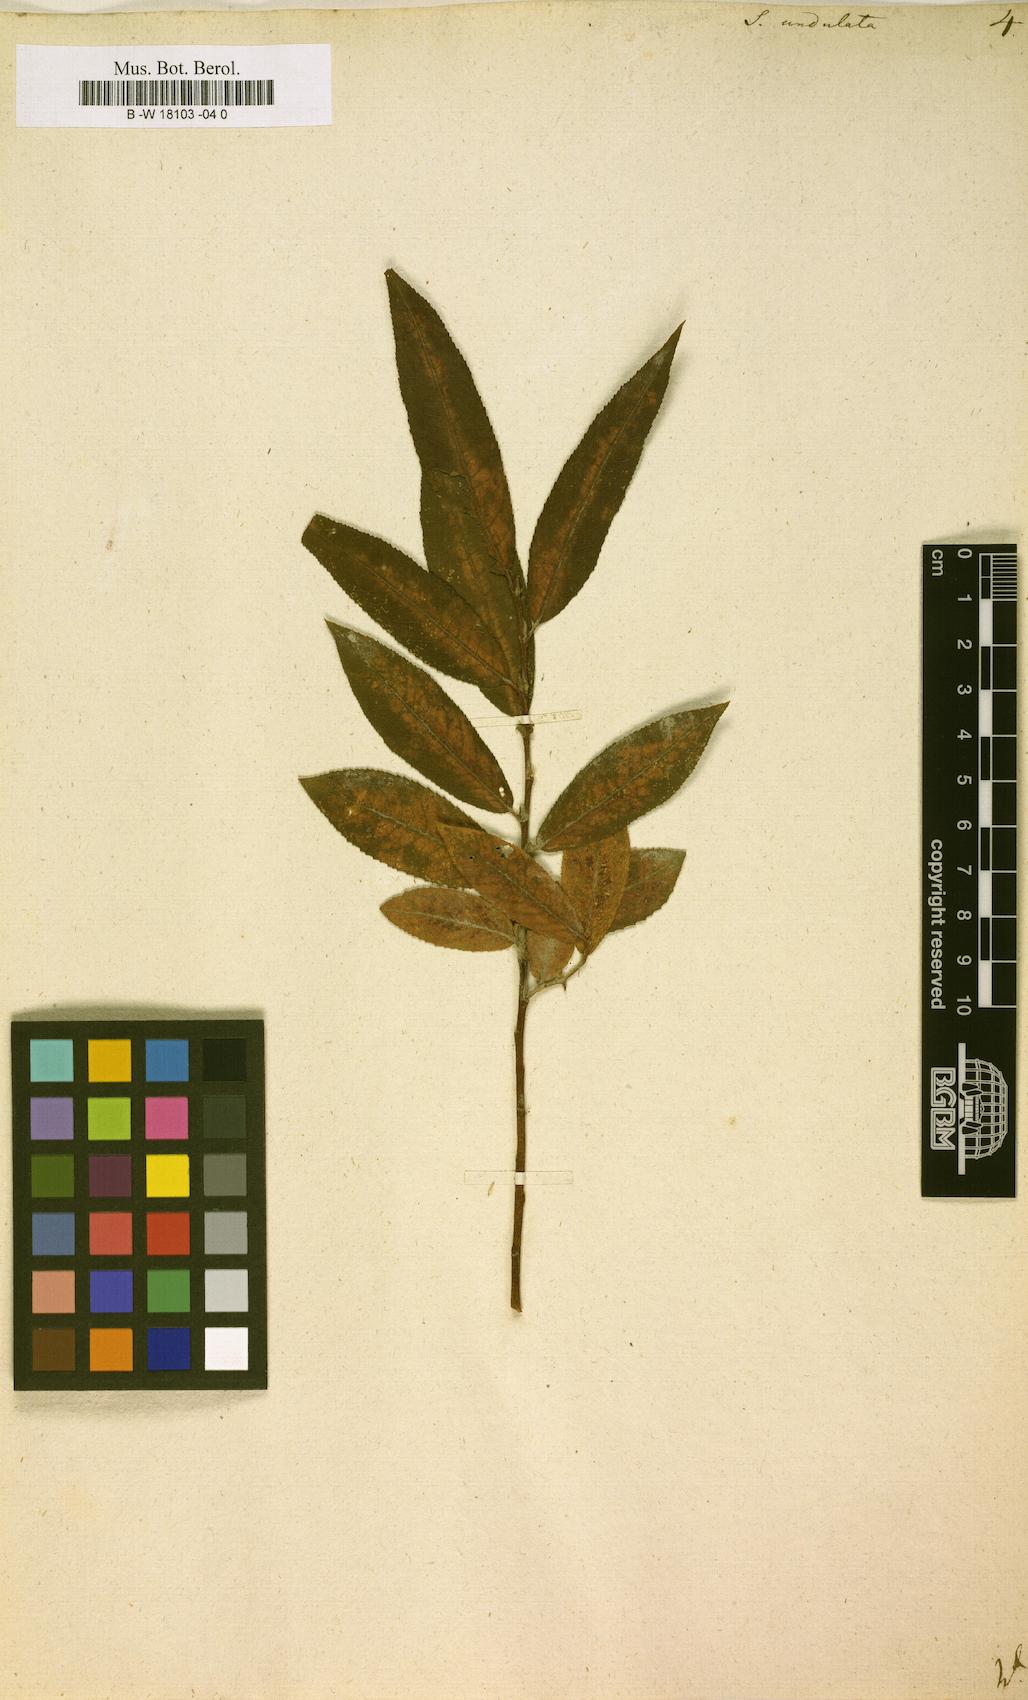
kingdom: Plantae
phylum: Tracheophyta
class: Magnoliopsida
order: Malpighiales
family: Salicaceae
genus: Salix
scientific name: Salix undulata
